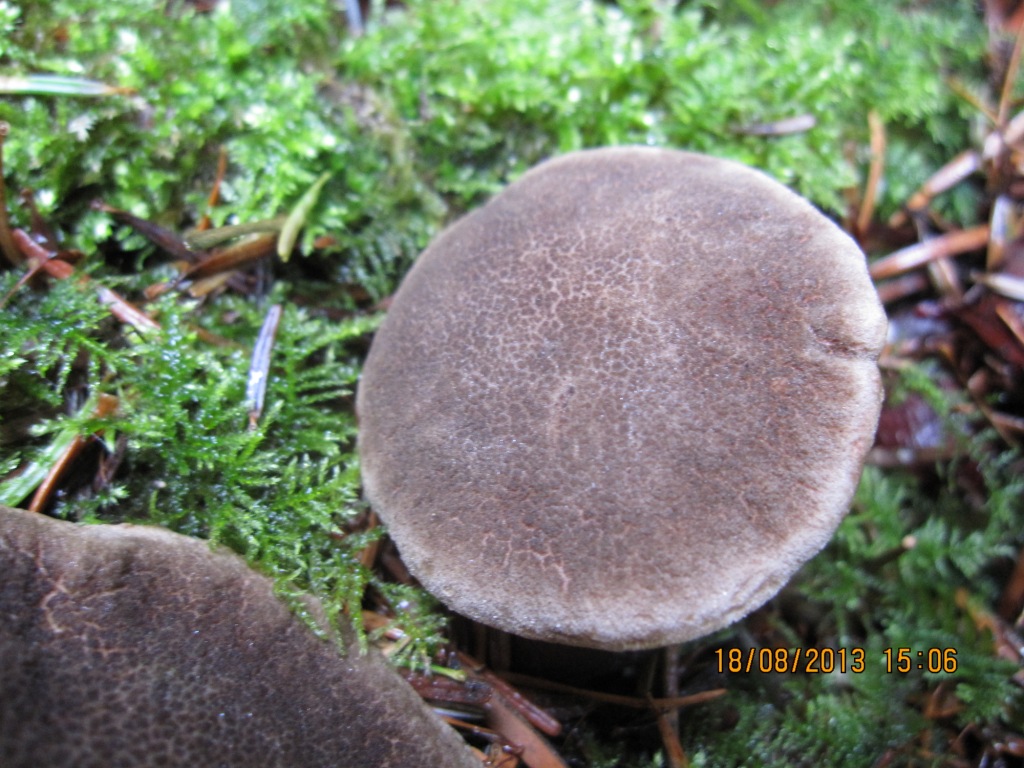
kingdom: Fungi
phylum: Basidiomycota
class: Agaricomycetes
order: Boletales
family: Boletaceae
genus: Xerocomellus
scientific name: Xerocomellus chrysenteron
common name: rødsprukken rørhat
